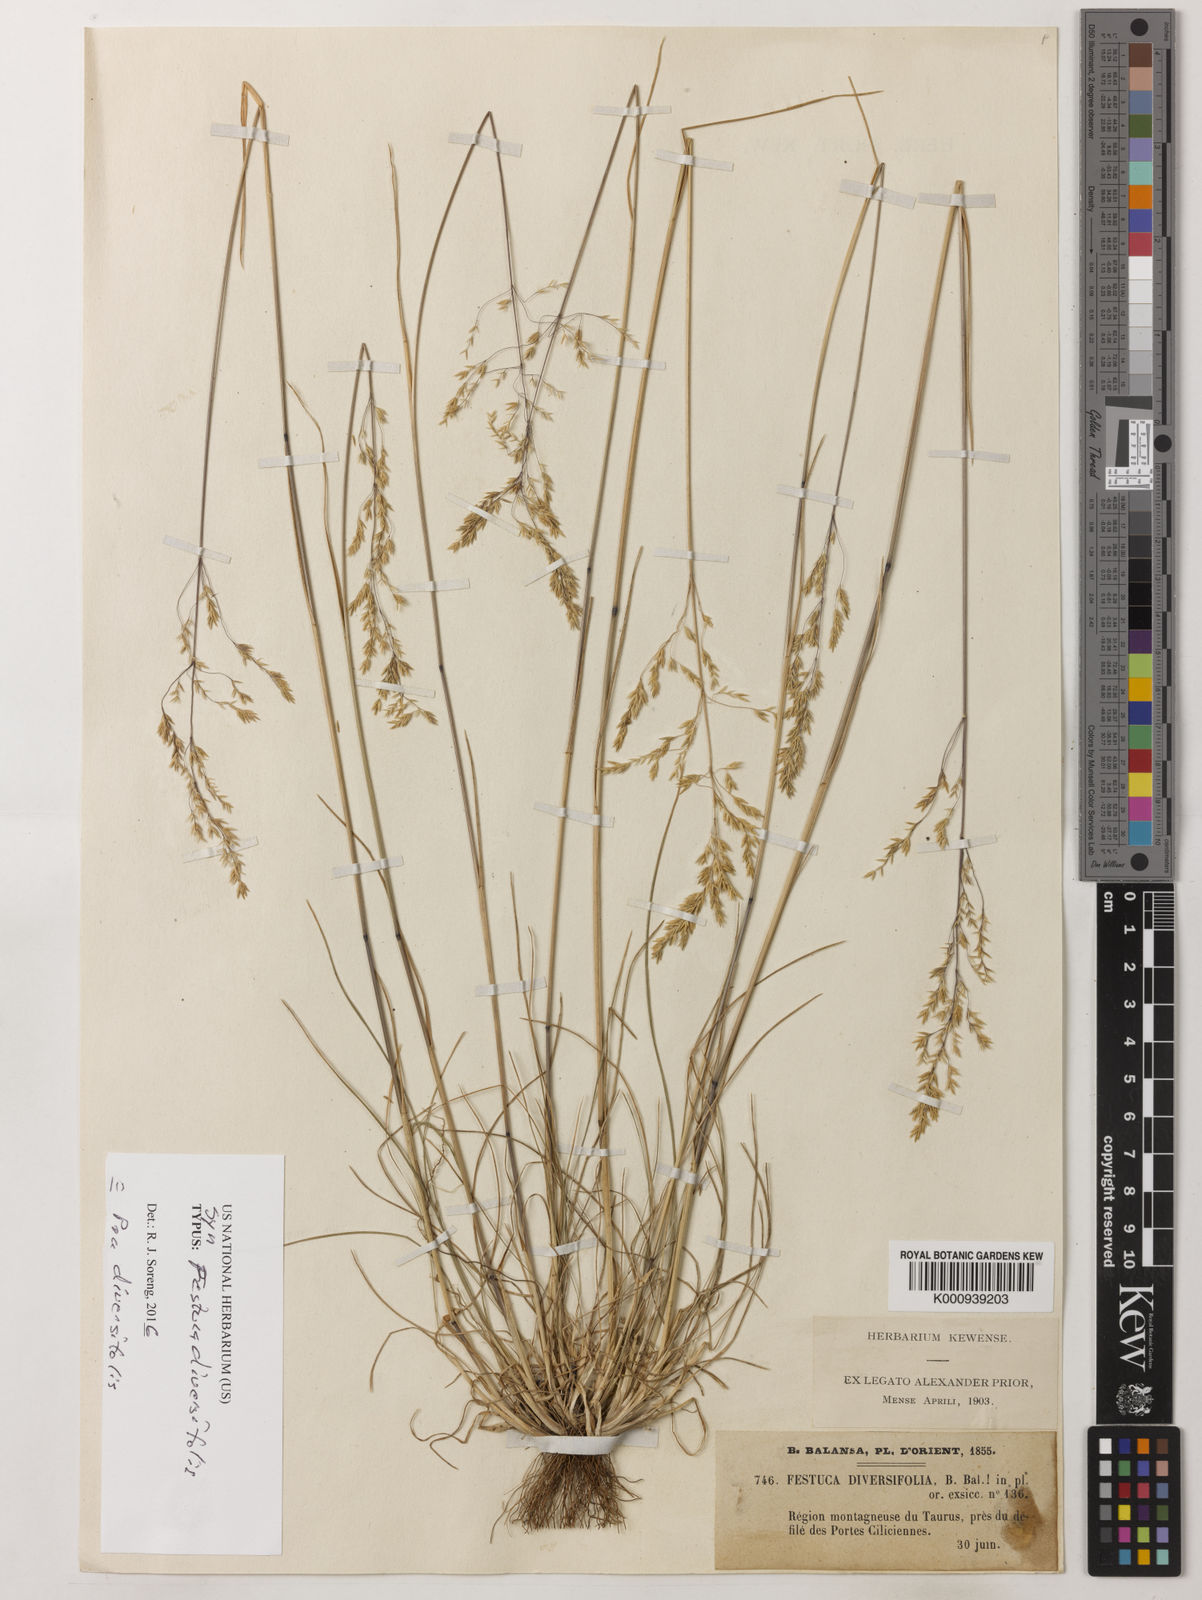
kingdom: Plantae
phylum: Tracheophyta
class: Liliopsida
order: Poales
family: Poaceae
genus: Poa
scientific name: Poa diversifolia
